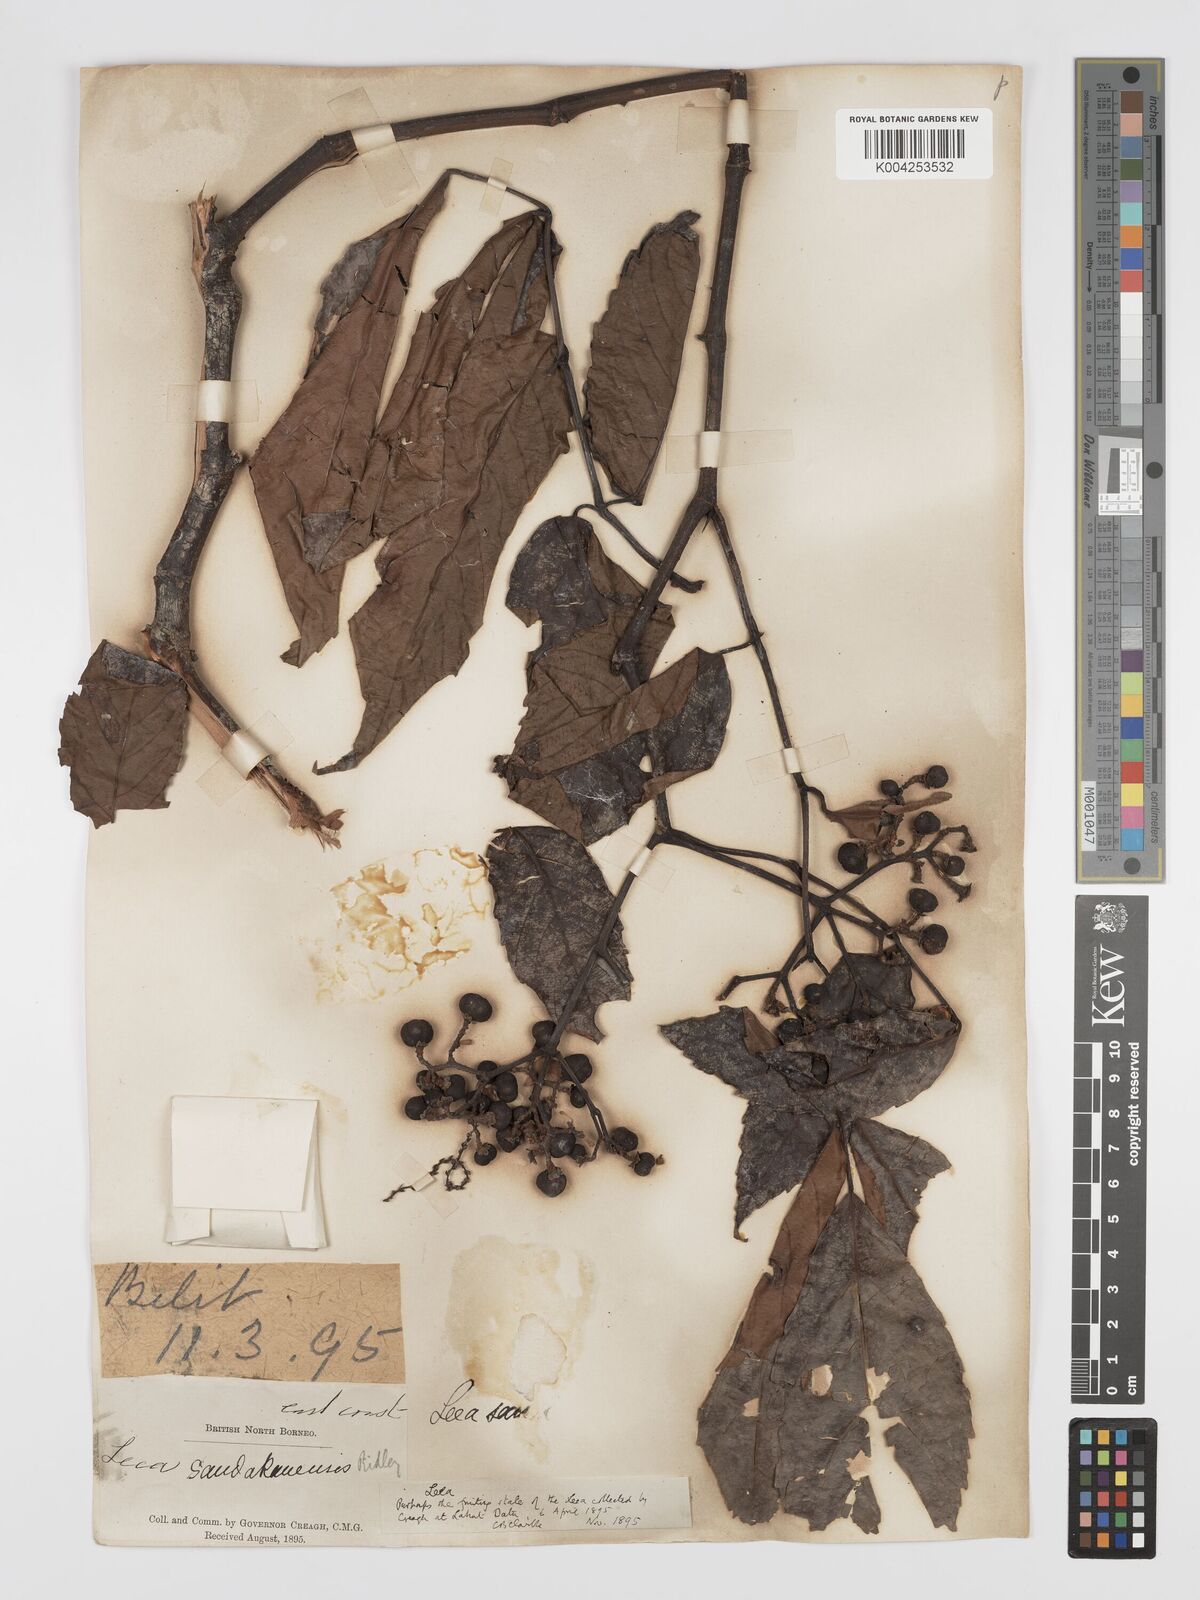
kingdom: Plantae
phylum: Tracheophyta
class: Magnoliopsida
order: Vitales
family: Vitaceae
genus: Leea
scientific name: Leea aculeata
